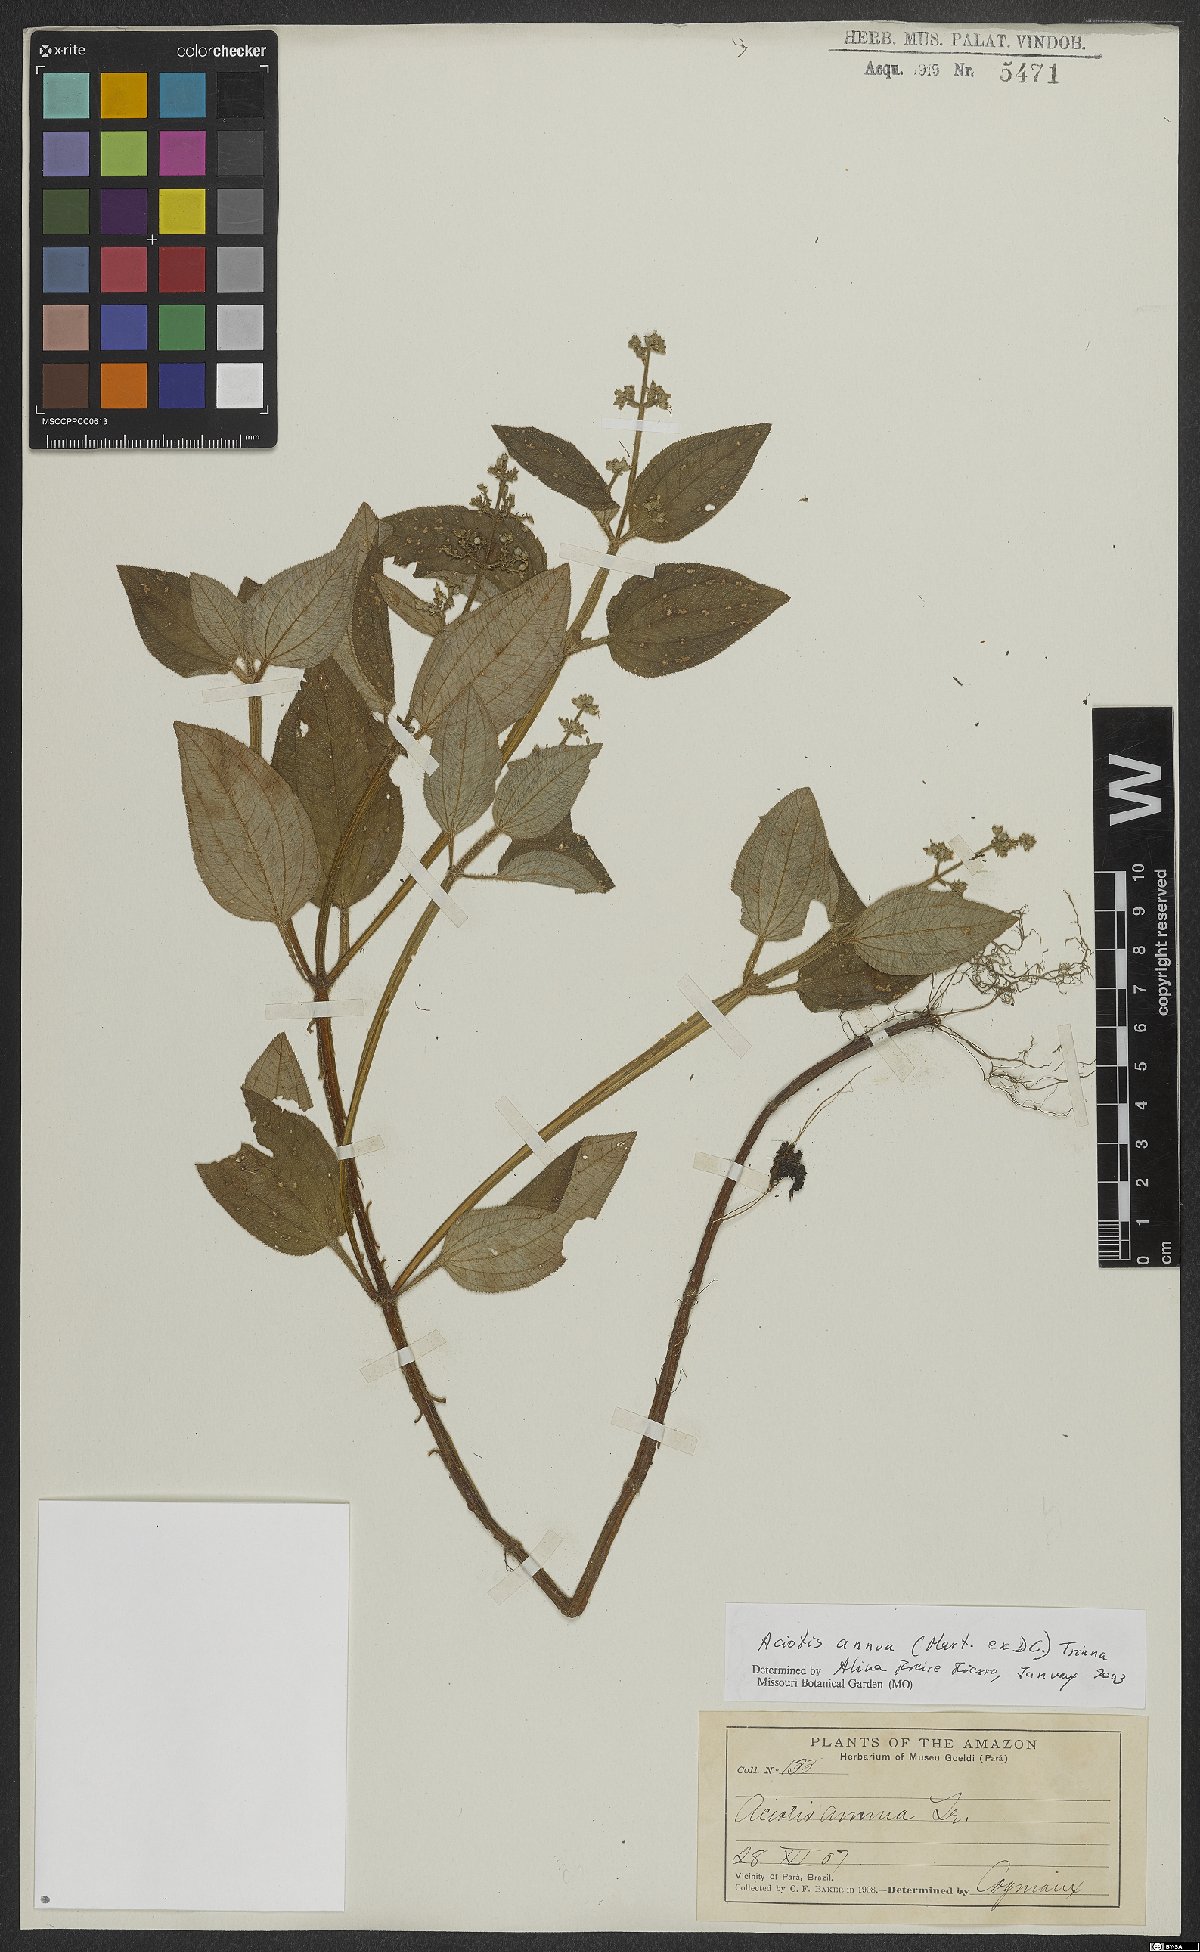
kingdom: Plantae
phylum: Tracheophyta
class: Magnoliopsida
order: Myrtales
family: Melastomataceae
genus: Aciotis
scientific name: Aciotis annua
